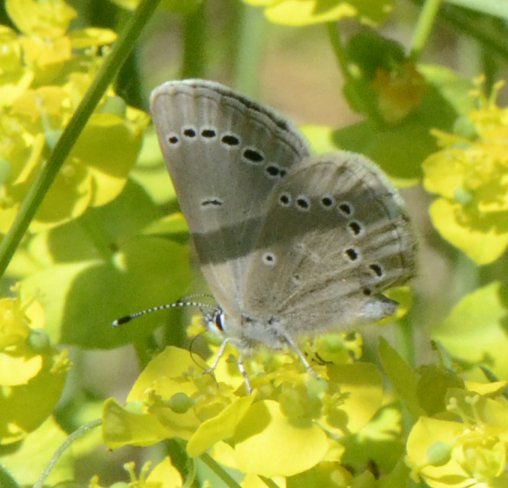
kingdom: Animalia
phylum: Arthropoda
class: Insecta
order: Lepidoptera
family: Lycaenidae
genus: Glaucopsyche
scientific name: Glaucopsyche lygdamus
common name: Silvery Blue
